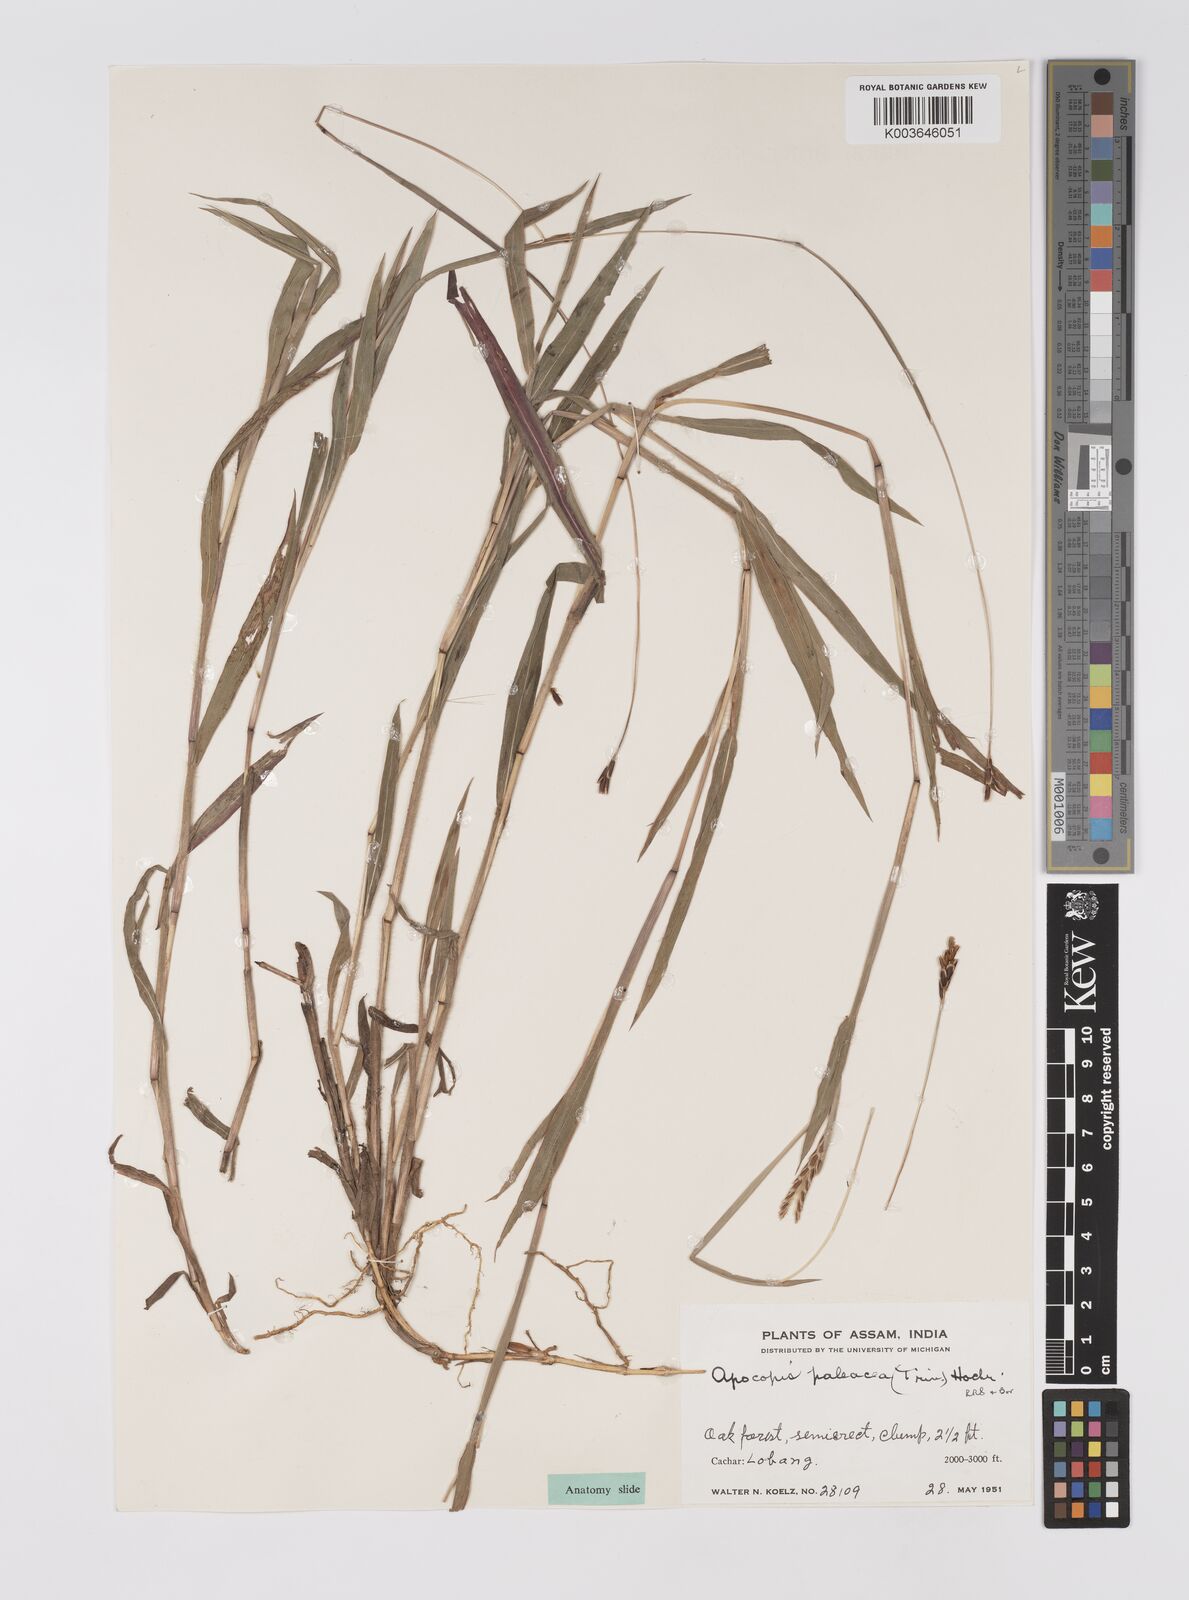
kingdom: Plantae
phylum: Tracheophyta
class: Liliopsida
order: Poales
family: Poaceae
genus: Apocopis
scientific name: Apocopis paleaceus
